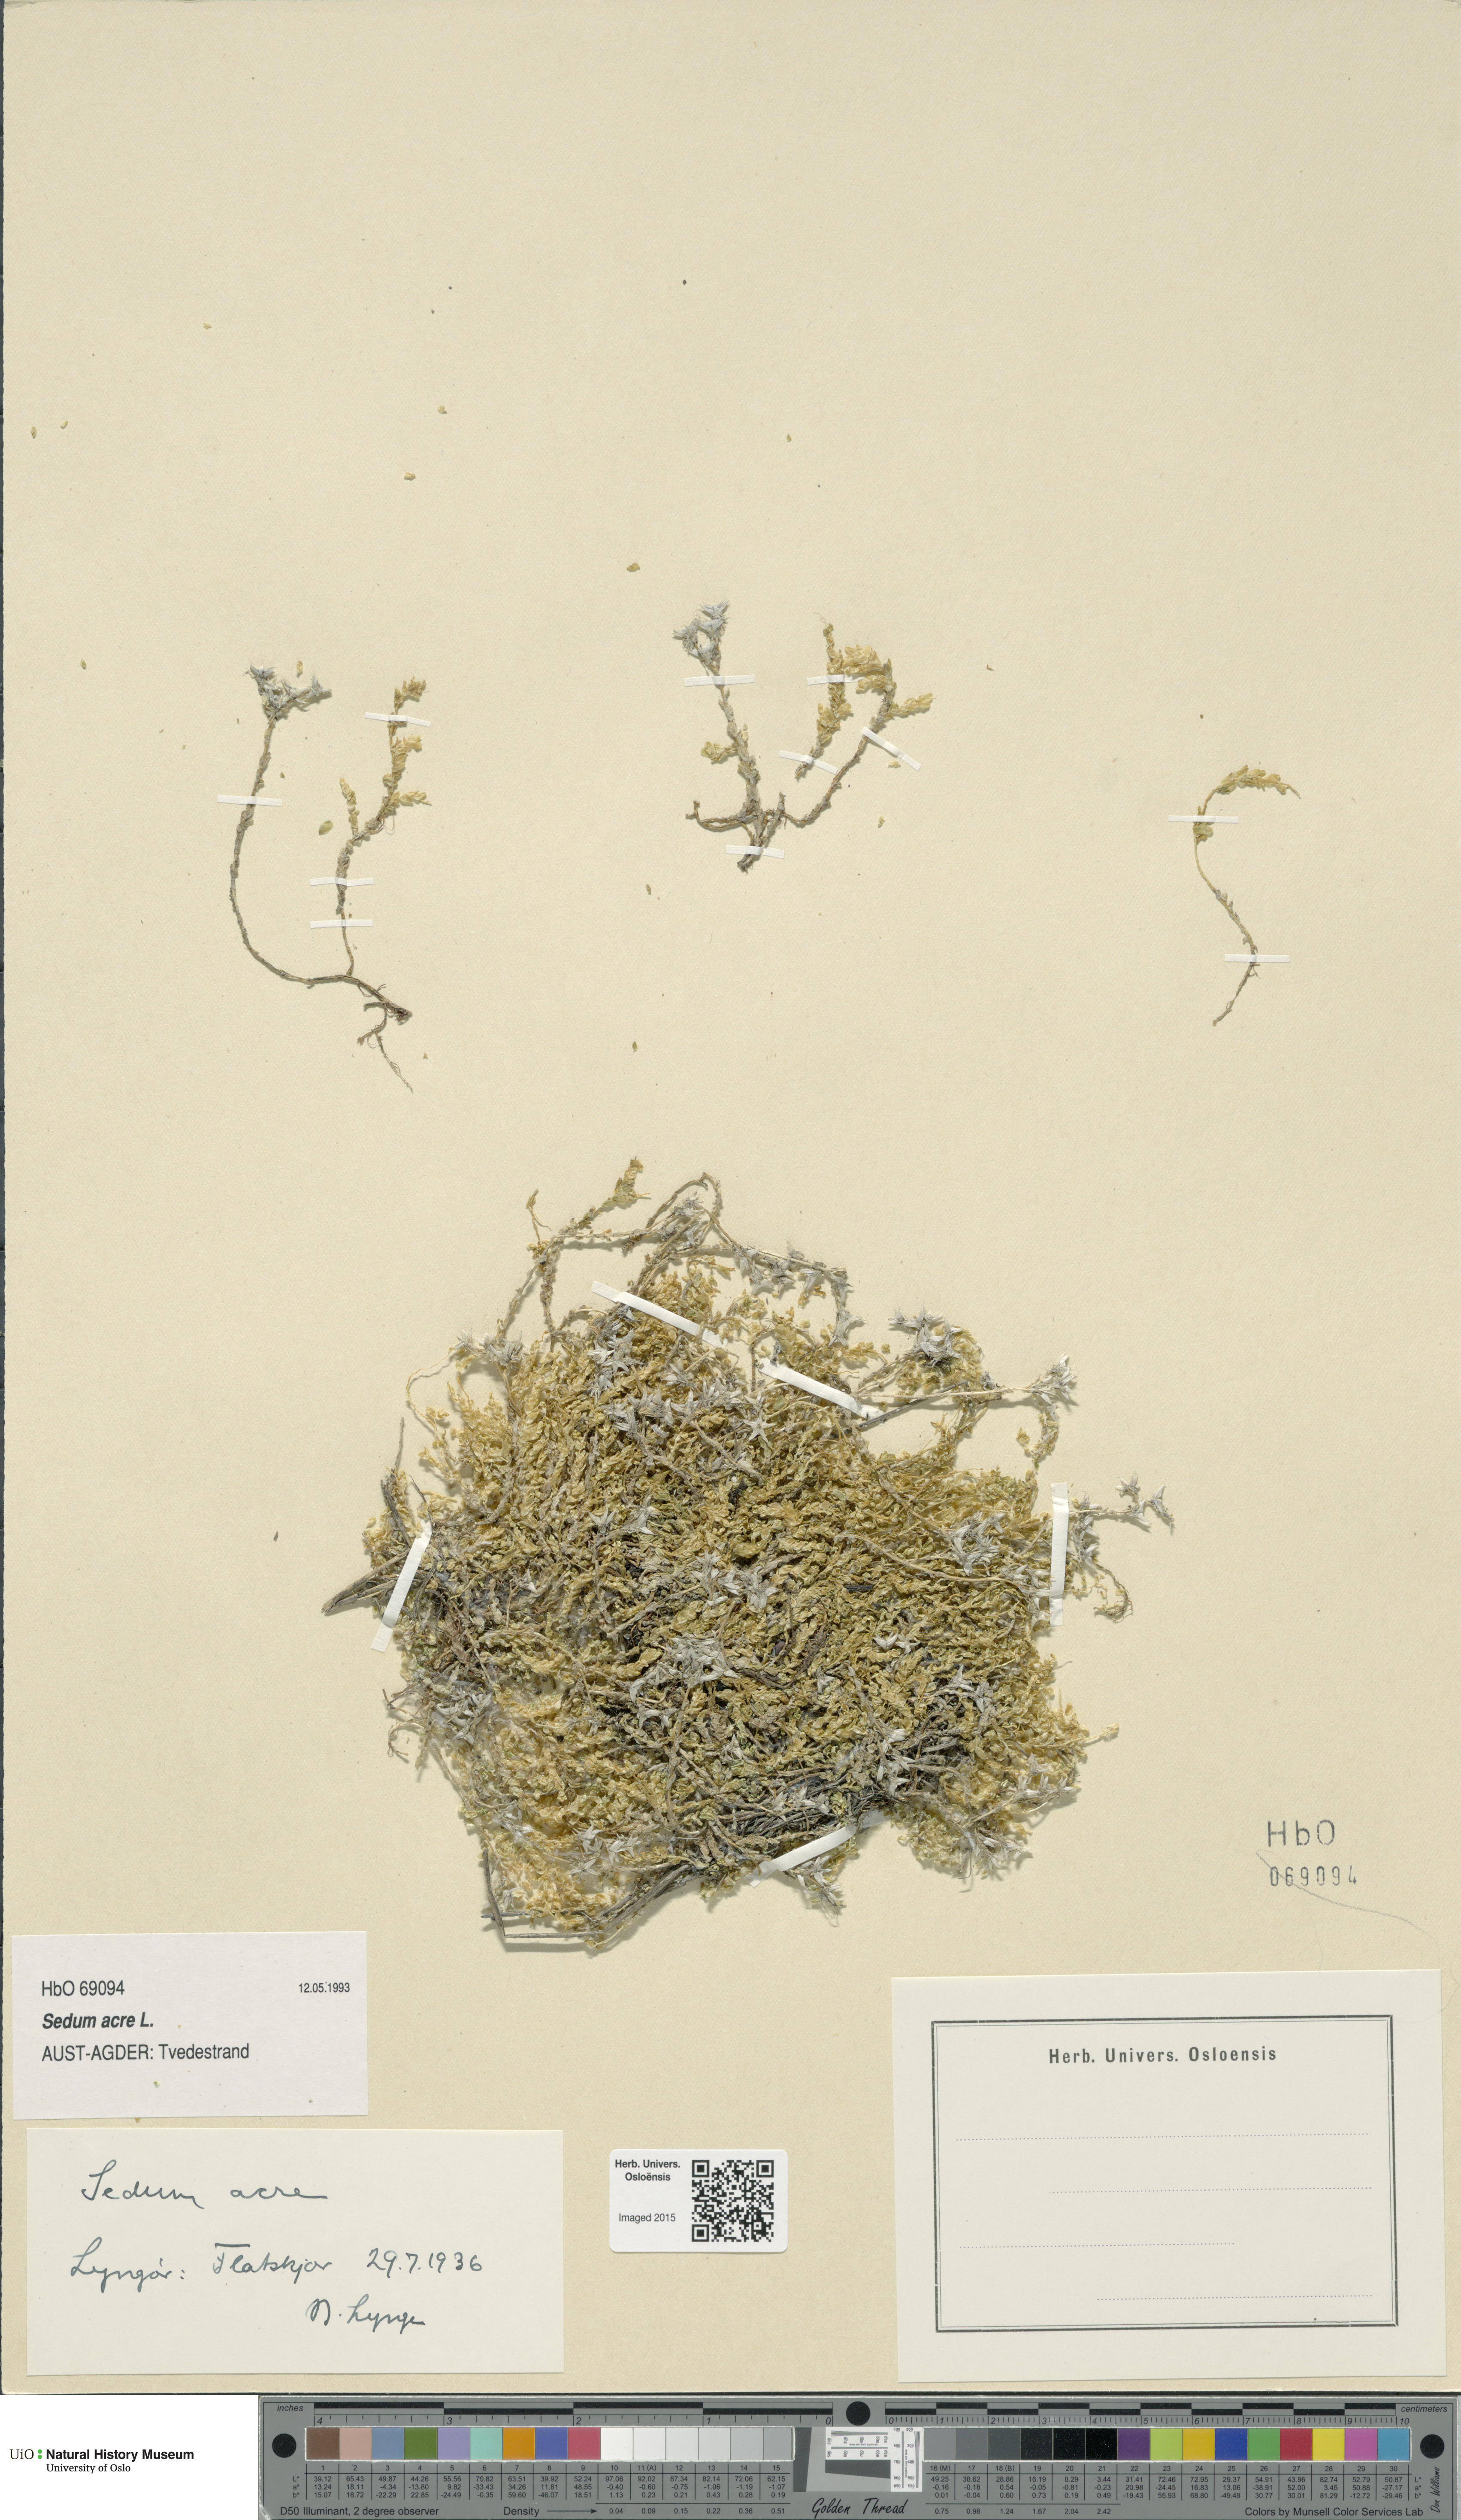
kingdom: Plantae
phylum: Tracheophyta
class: Magnoliopsida
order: Saxifragales
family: Crassulaceae
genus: Sedum
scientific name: Sedum acre
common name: Biting stonecrop
